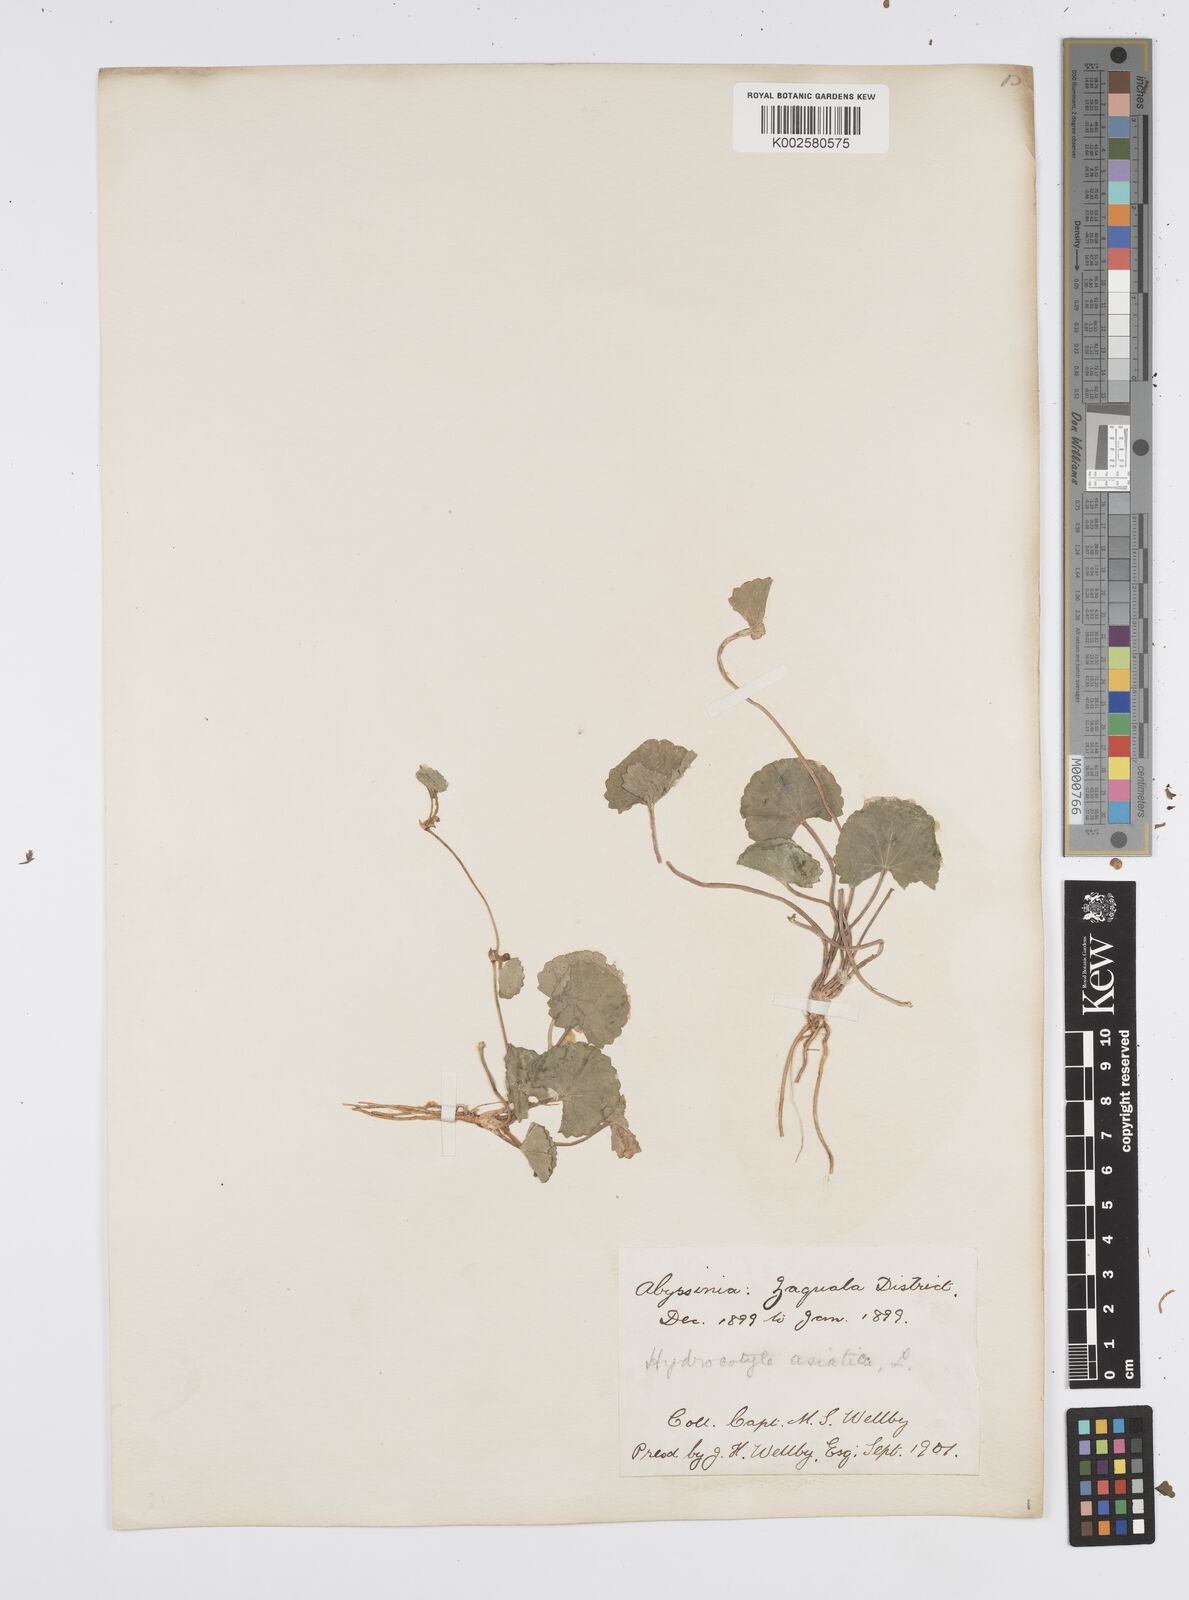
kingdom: Plantae
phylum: Tracheophyta
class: Magnoliopsida
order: Apiales
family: Apiaceae
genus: Centella
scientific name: Centella asiatica
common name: Spadeleaf
